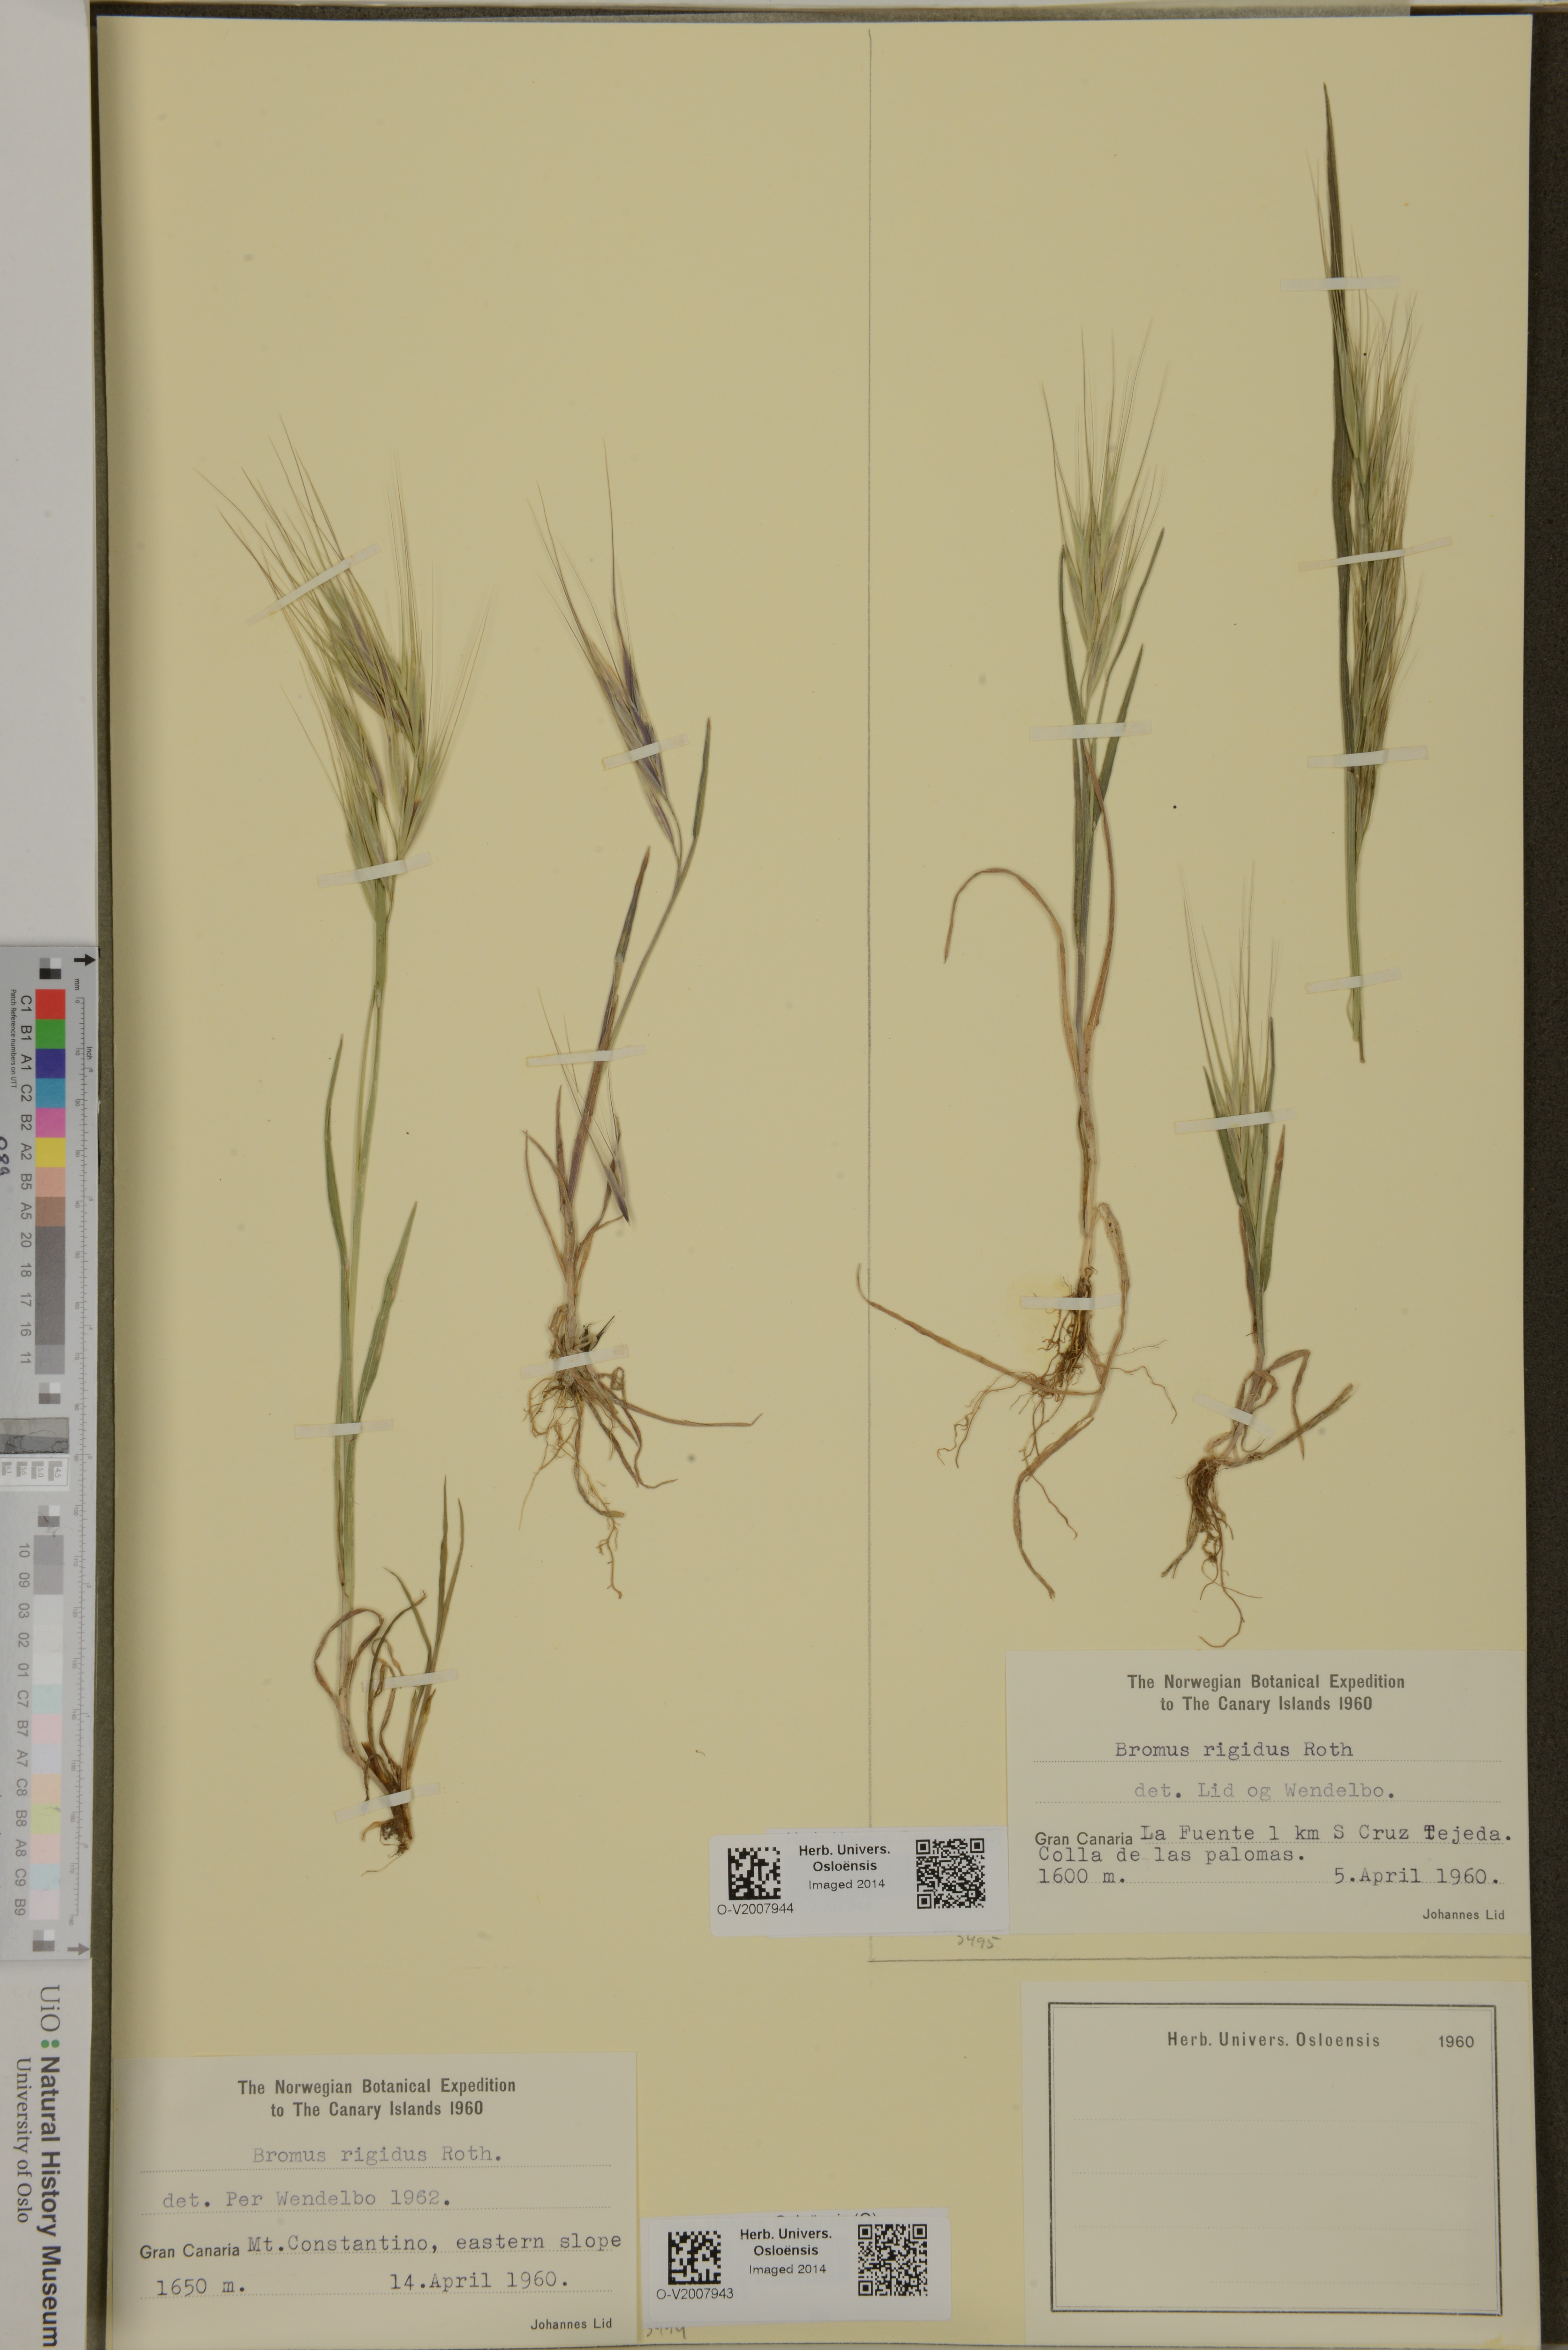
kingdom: Plantae
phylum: Tracheophyta
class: Liliopsida
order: Poales
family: Poaceae
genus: Bromus
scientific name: Bromus rigidus
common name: Ripgut brome
